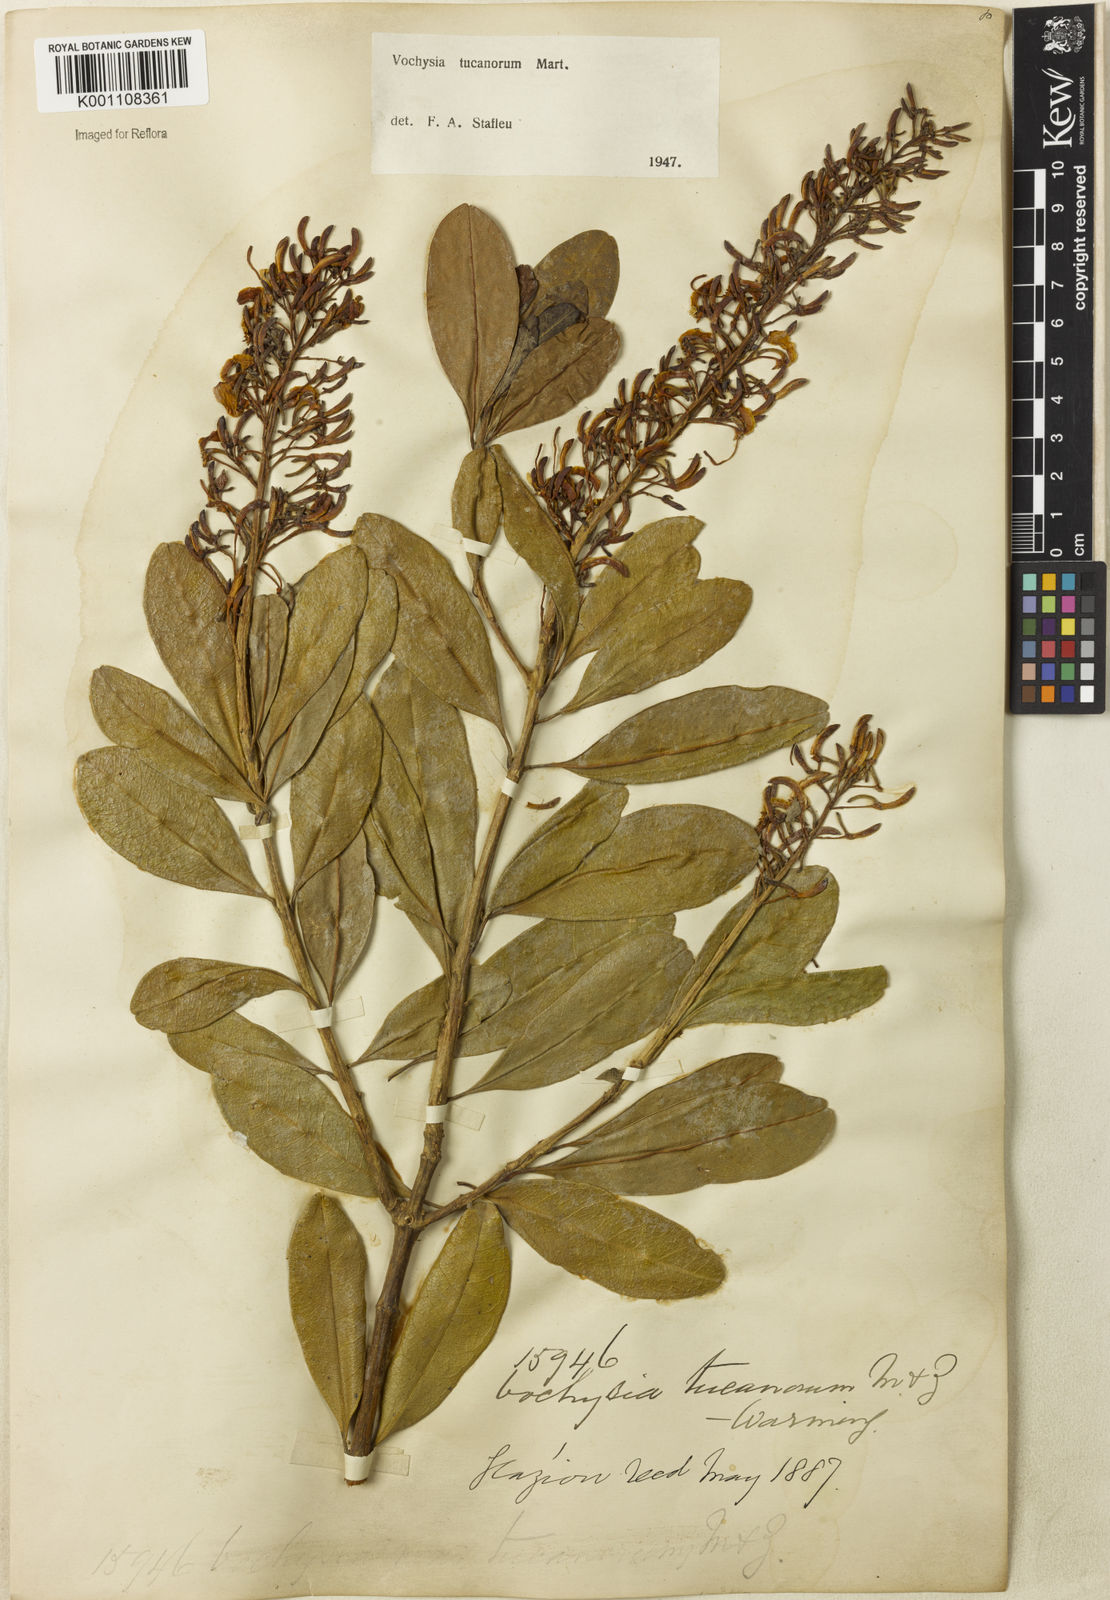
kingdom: Plantae
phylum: Tracheophyta
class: Magnoliopsida
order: Myrtales
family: Vochysiaceae
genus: Vochysia
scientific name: Vochysia tucanorum
